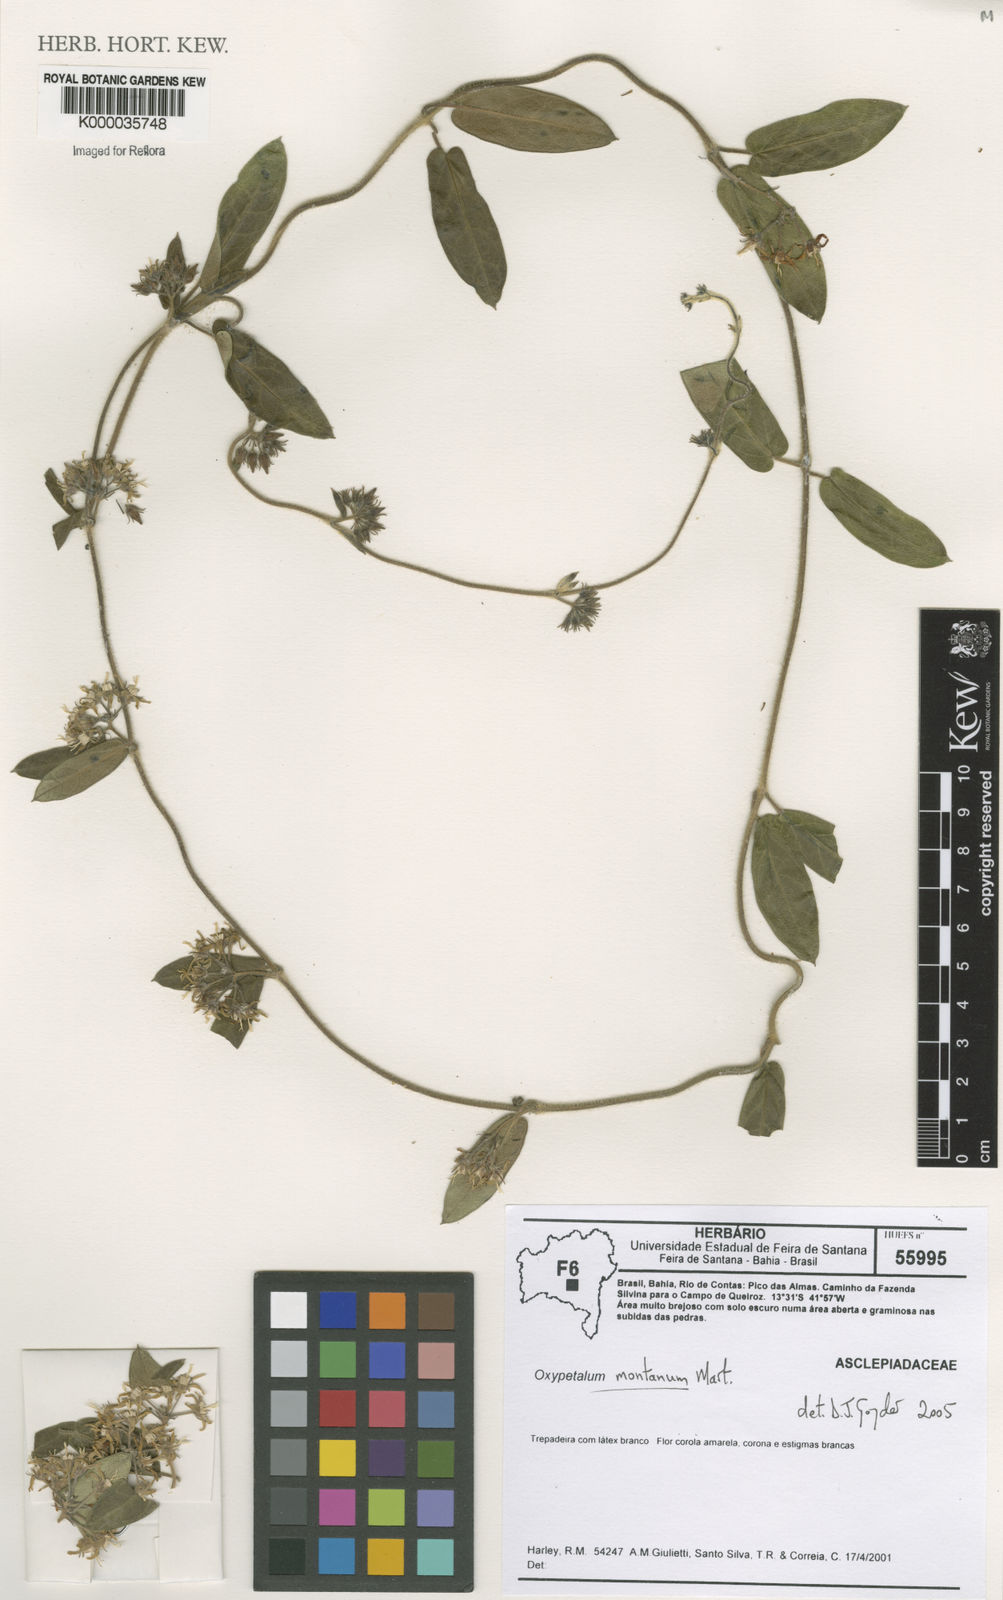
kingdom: Plantae
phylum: Tracheophyta
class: Magnoliopsida
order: Gentianales
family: Apocynaceae
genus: Oxypetalum
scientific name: Oxypetalum montanum
